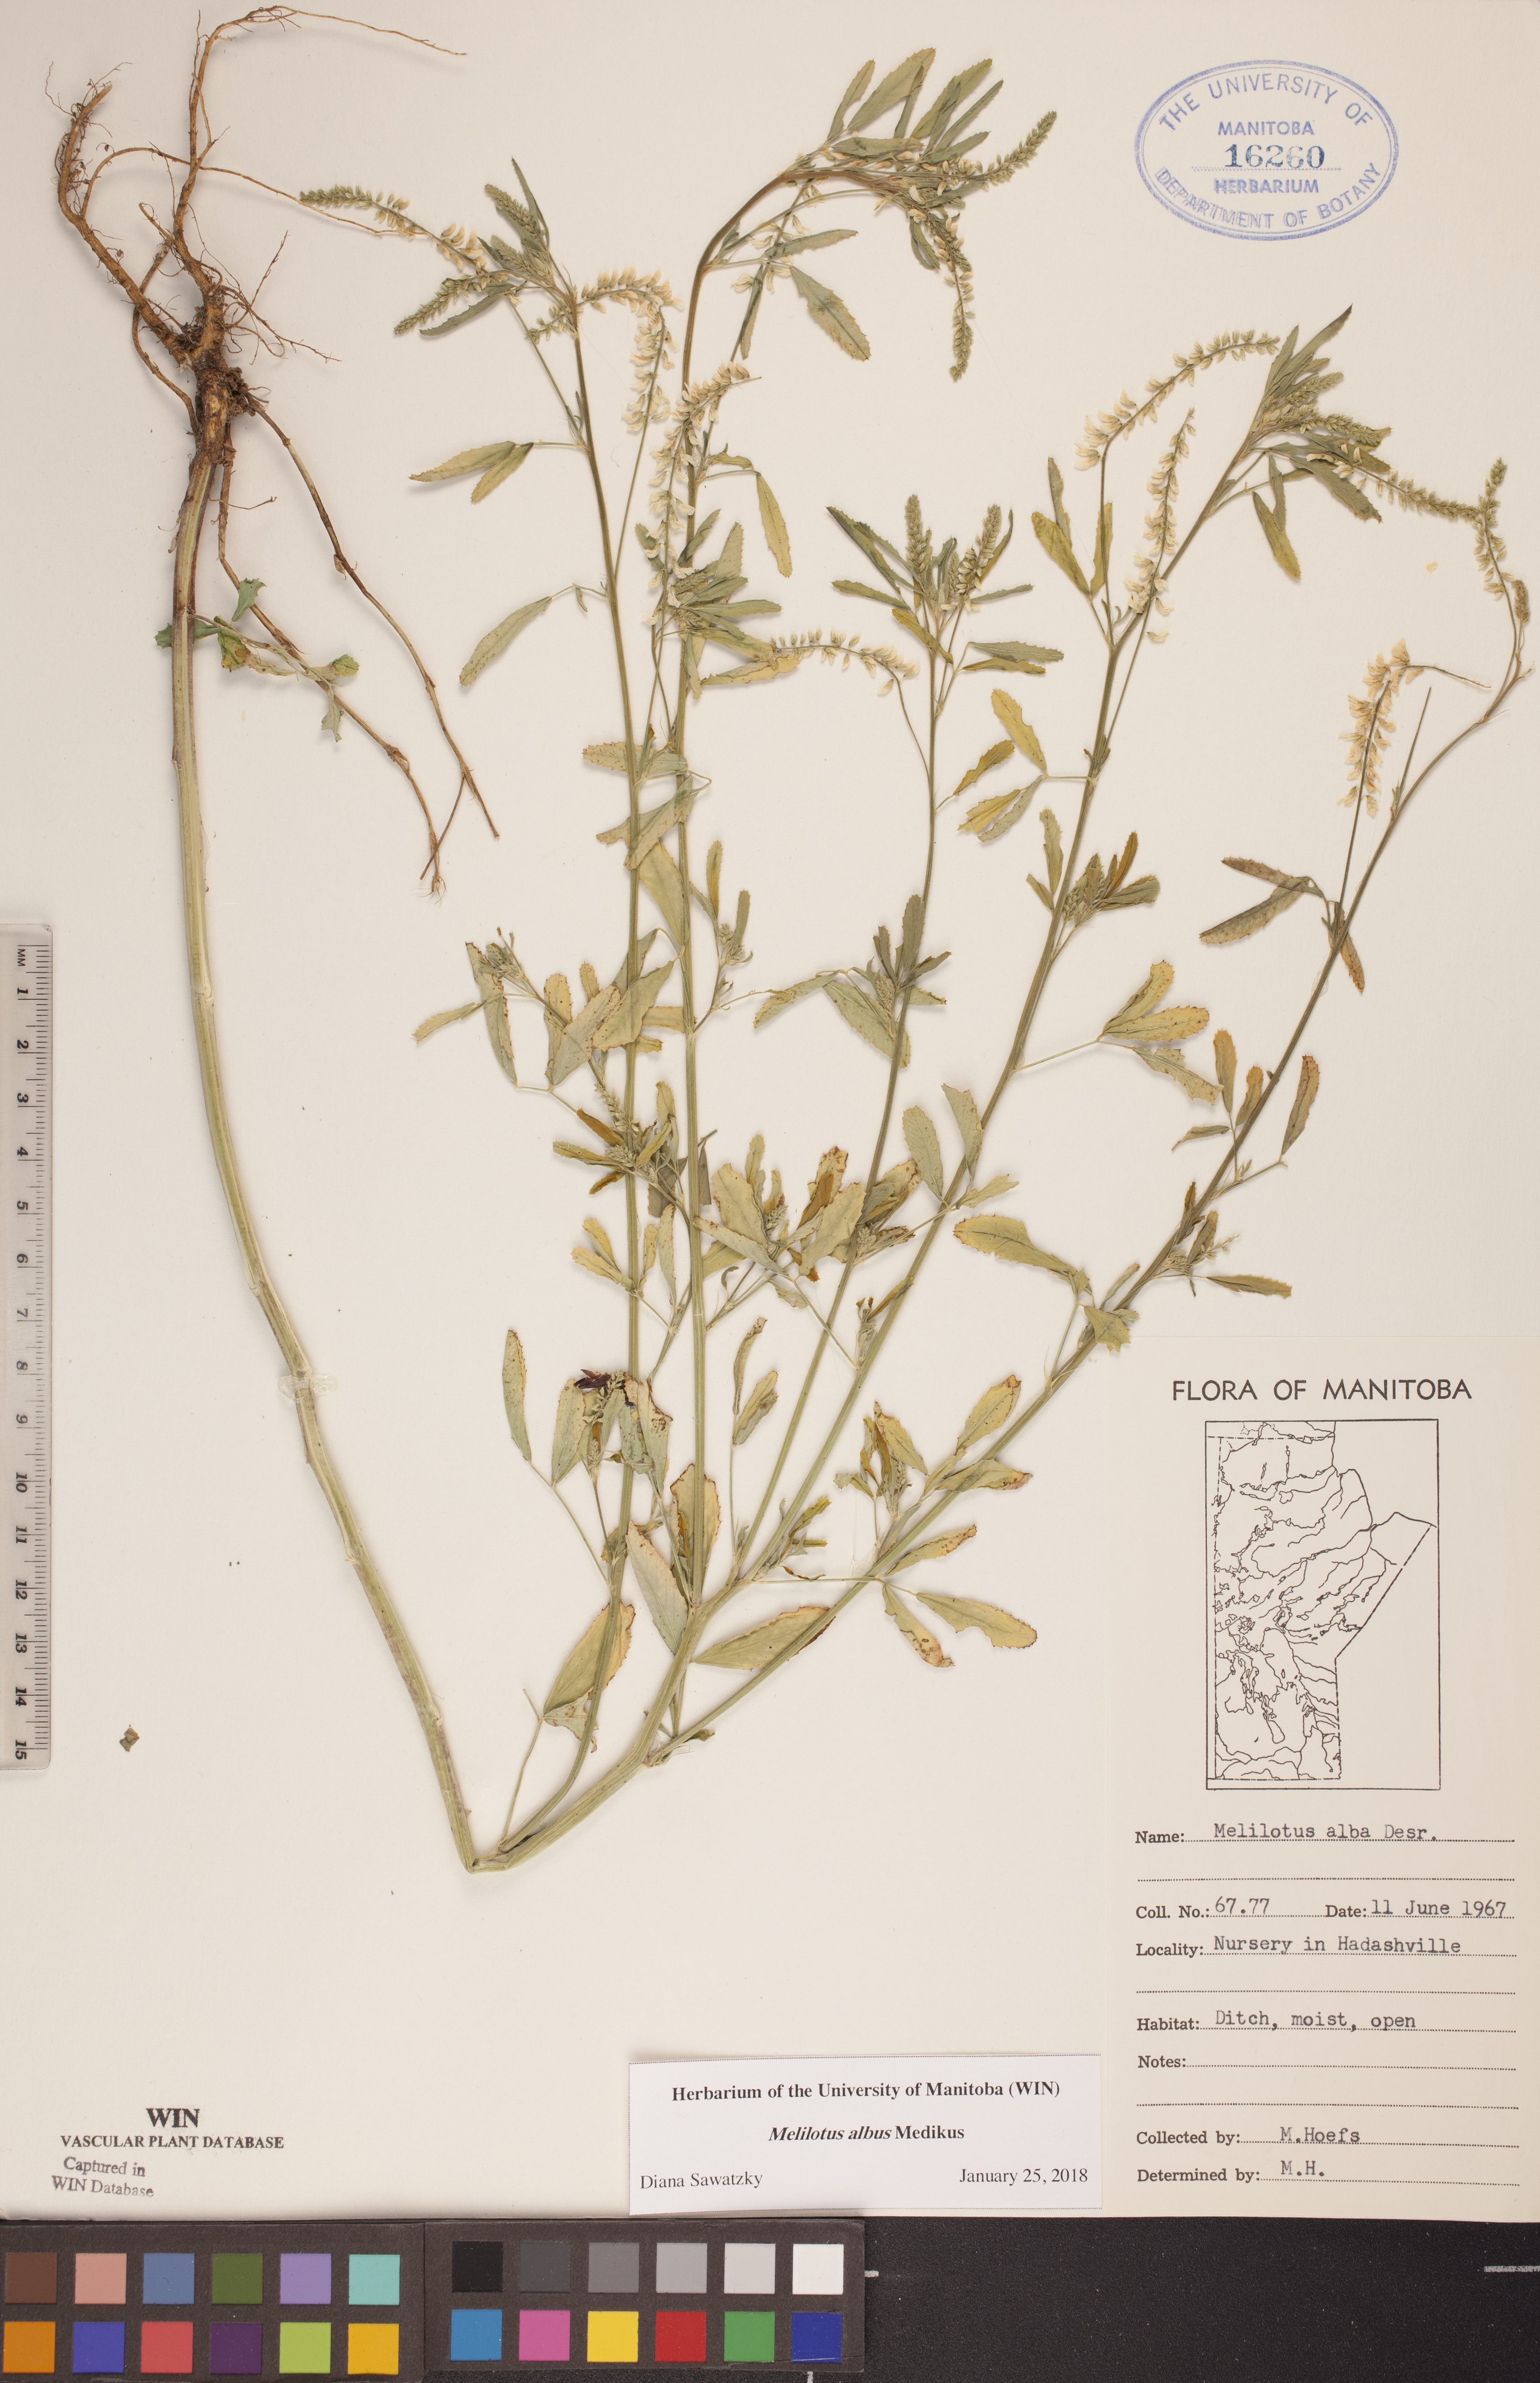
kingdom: Plantae
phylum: Tracheophyta
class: Magnoliopsida
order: Fabales
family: Fabaceae
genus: Melilotus
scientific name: Melilotus albus
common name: White melilot
